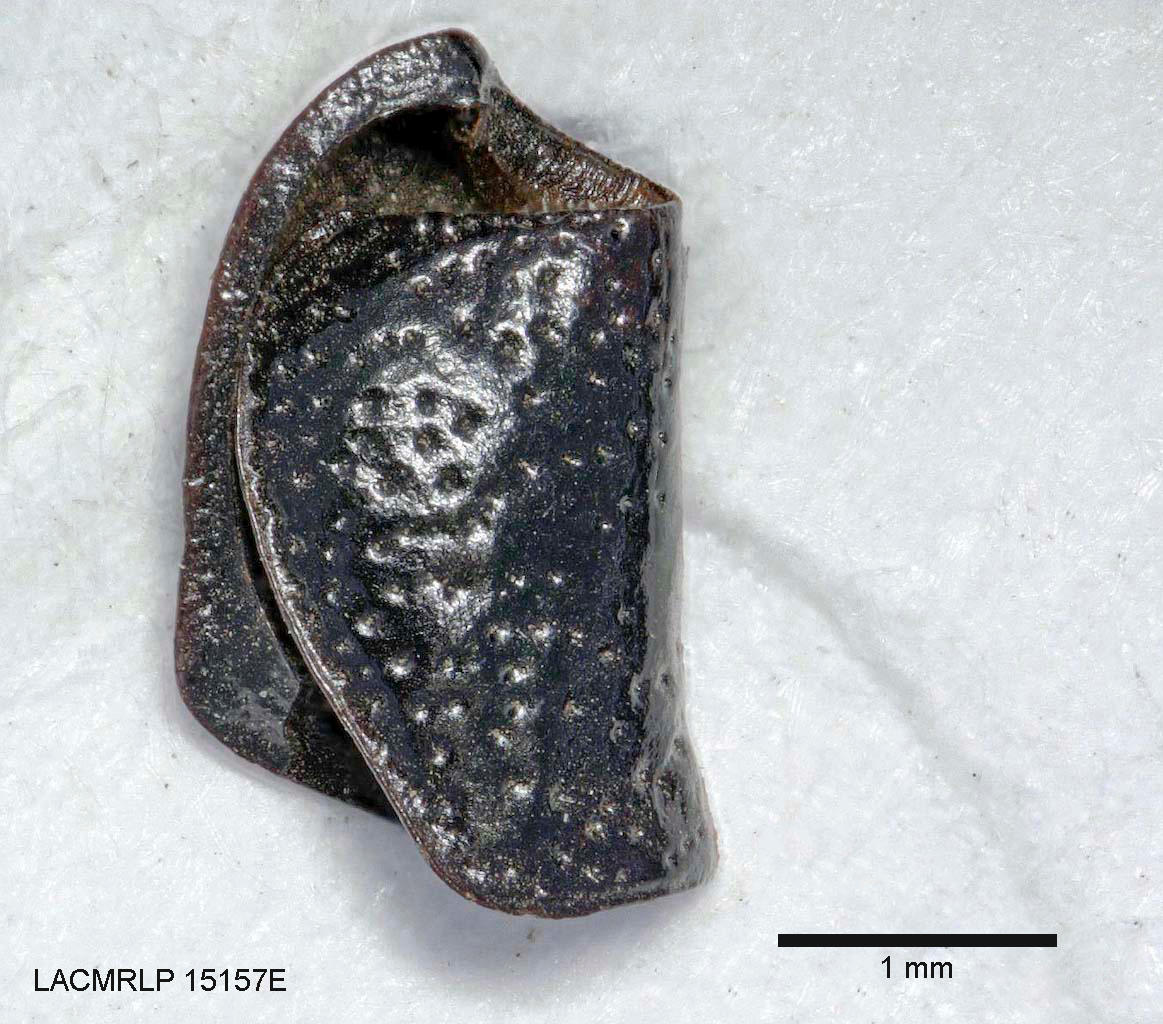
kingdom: Animalia
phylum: Arthropoda
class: Insecta
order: Coleoptera
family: Carabidae
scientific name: Carabidae
